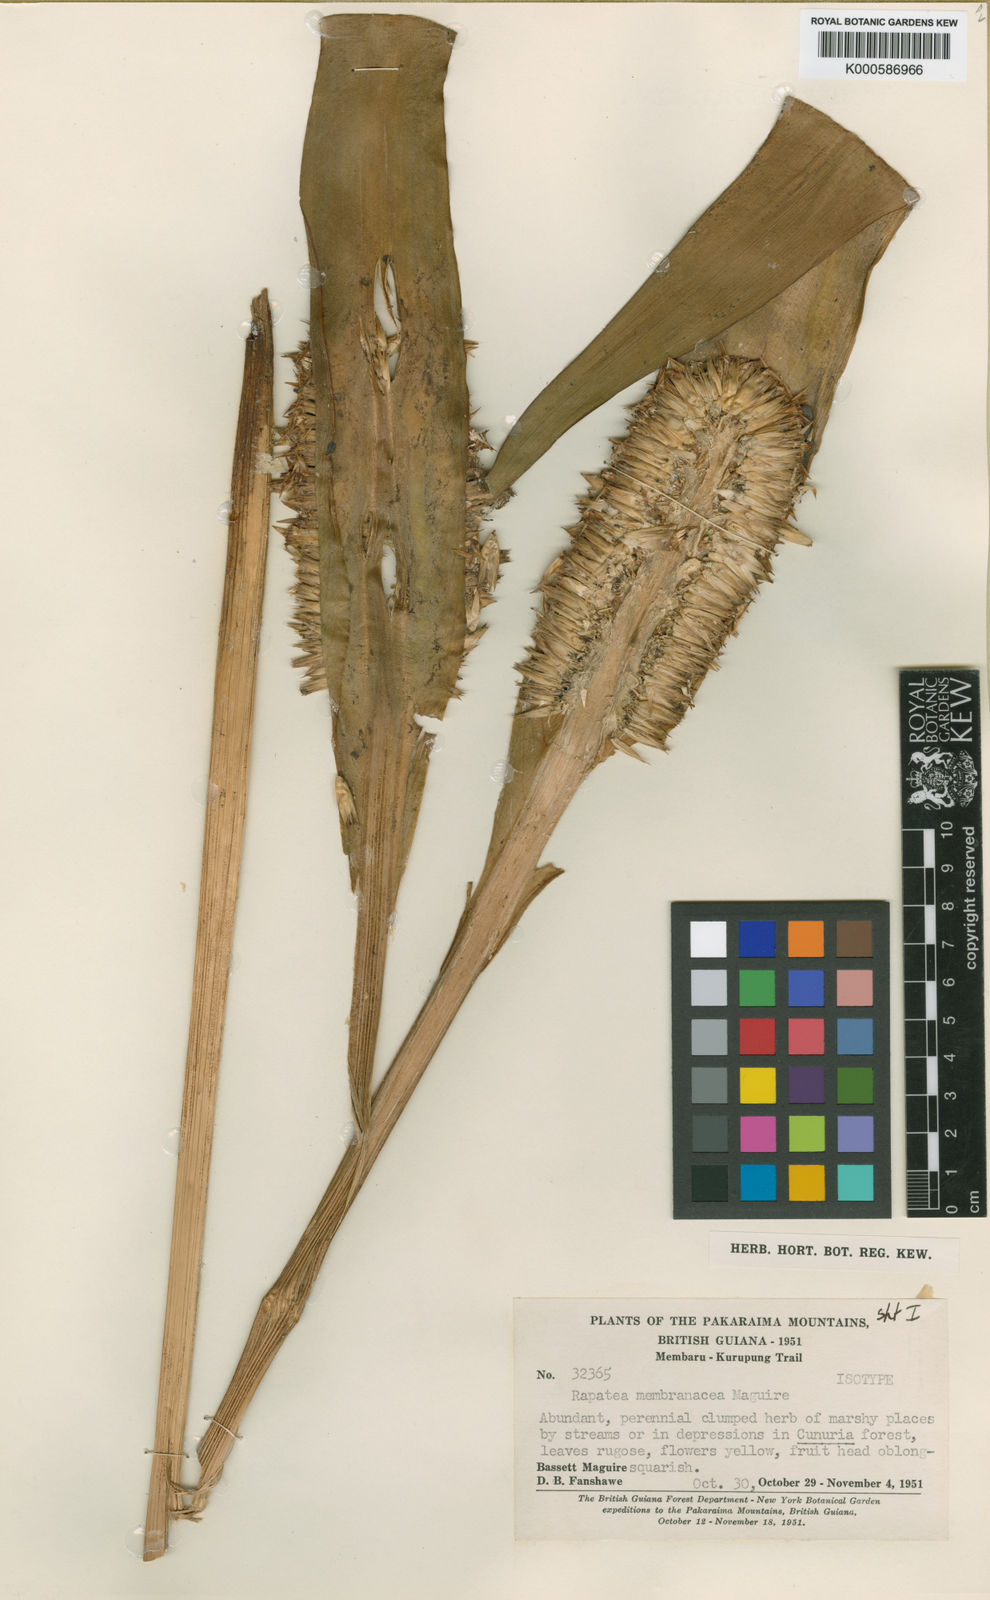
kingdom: Plantae
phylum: Tracheophyta
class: Liliopsida
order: Poales
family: Rapateaceae
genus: Rapatea
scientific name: Rapatea membranacea
